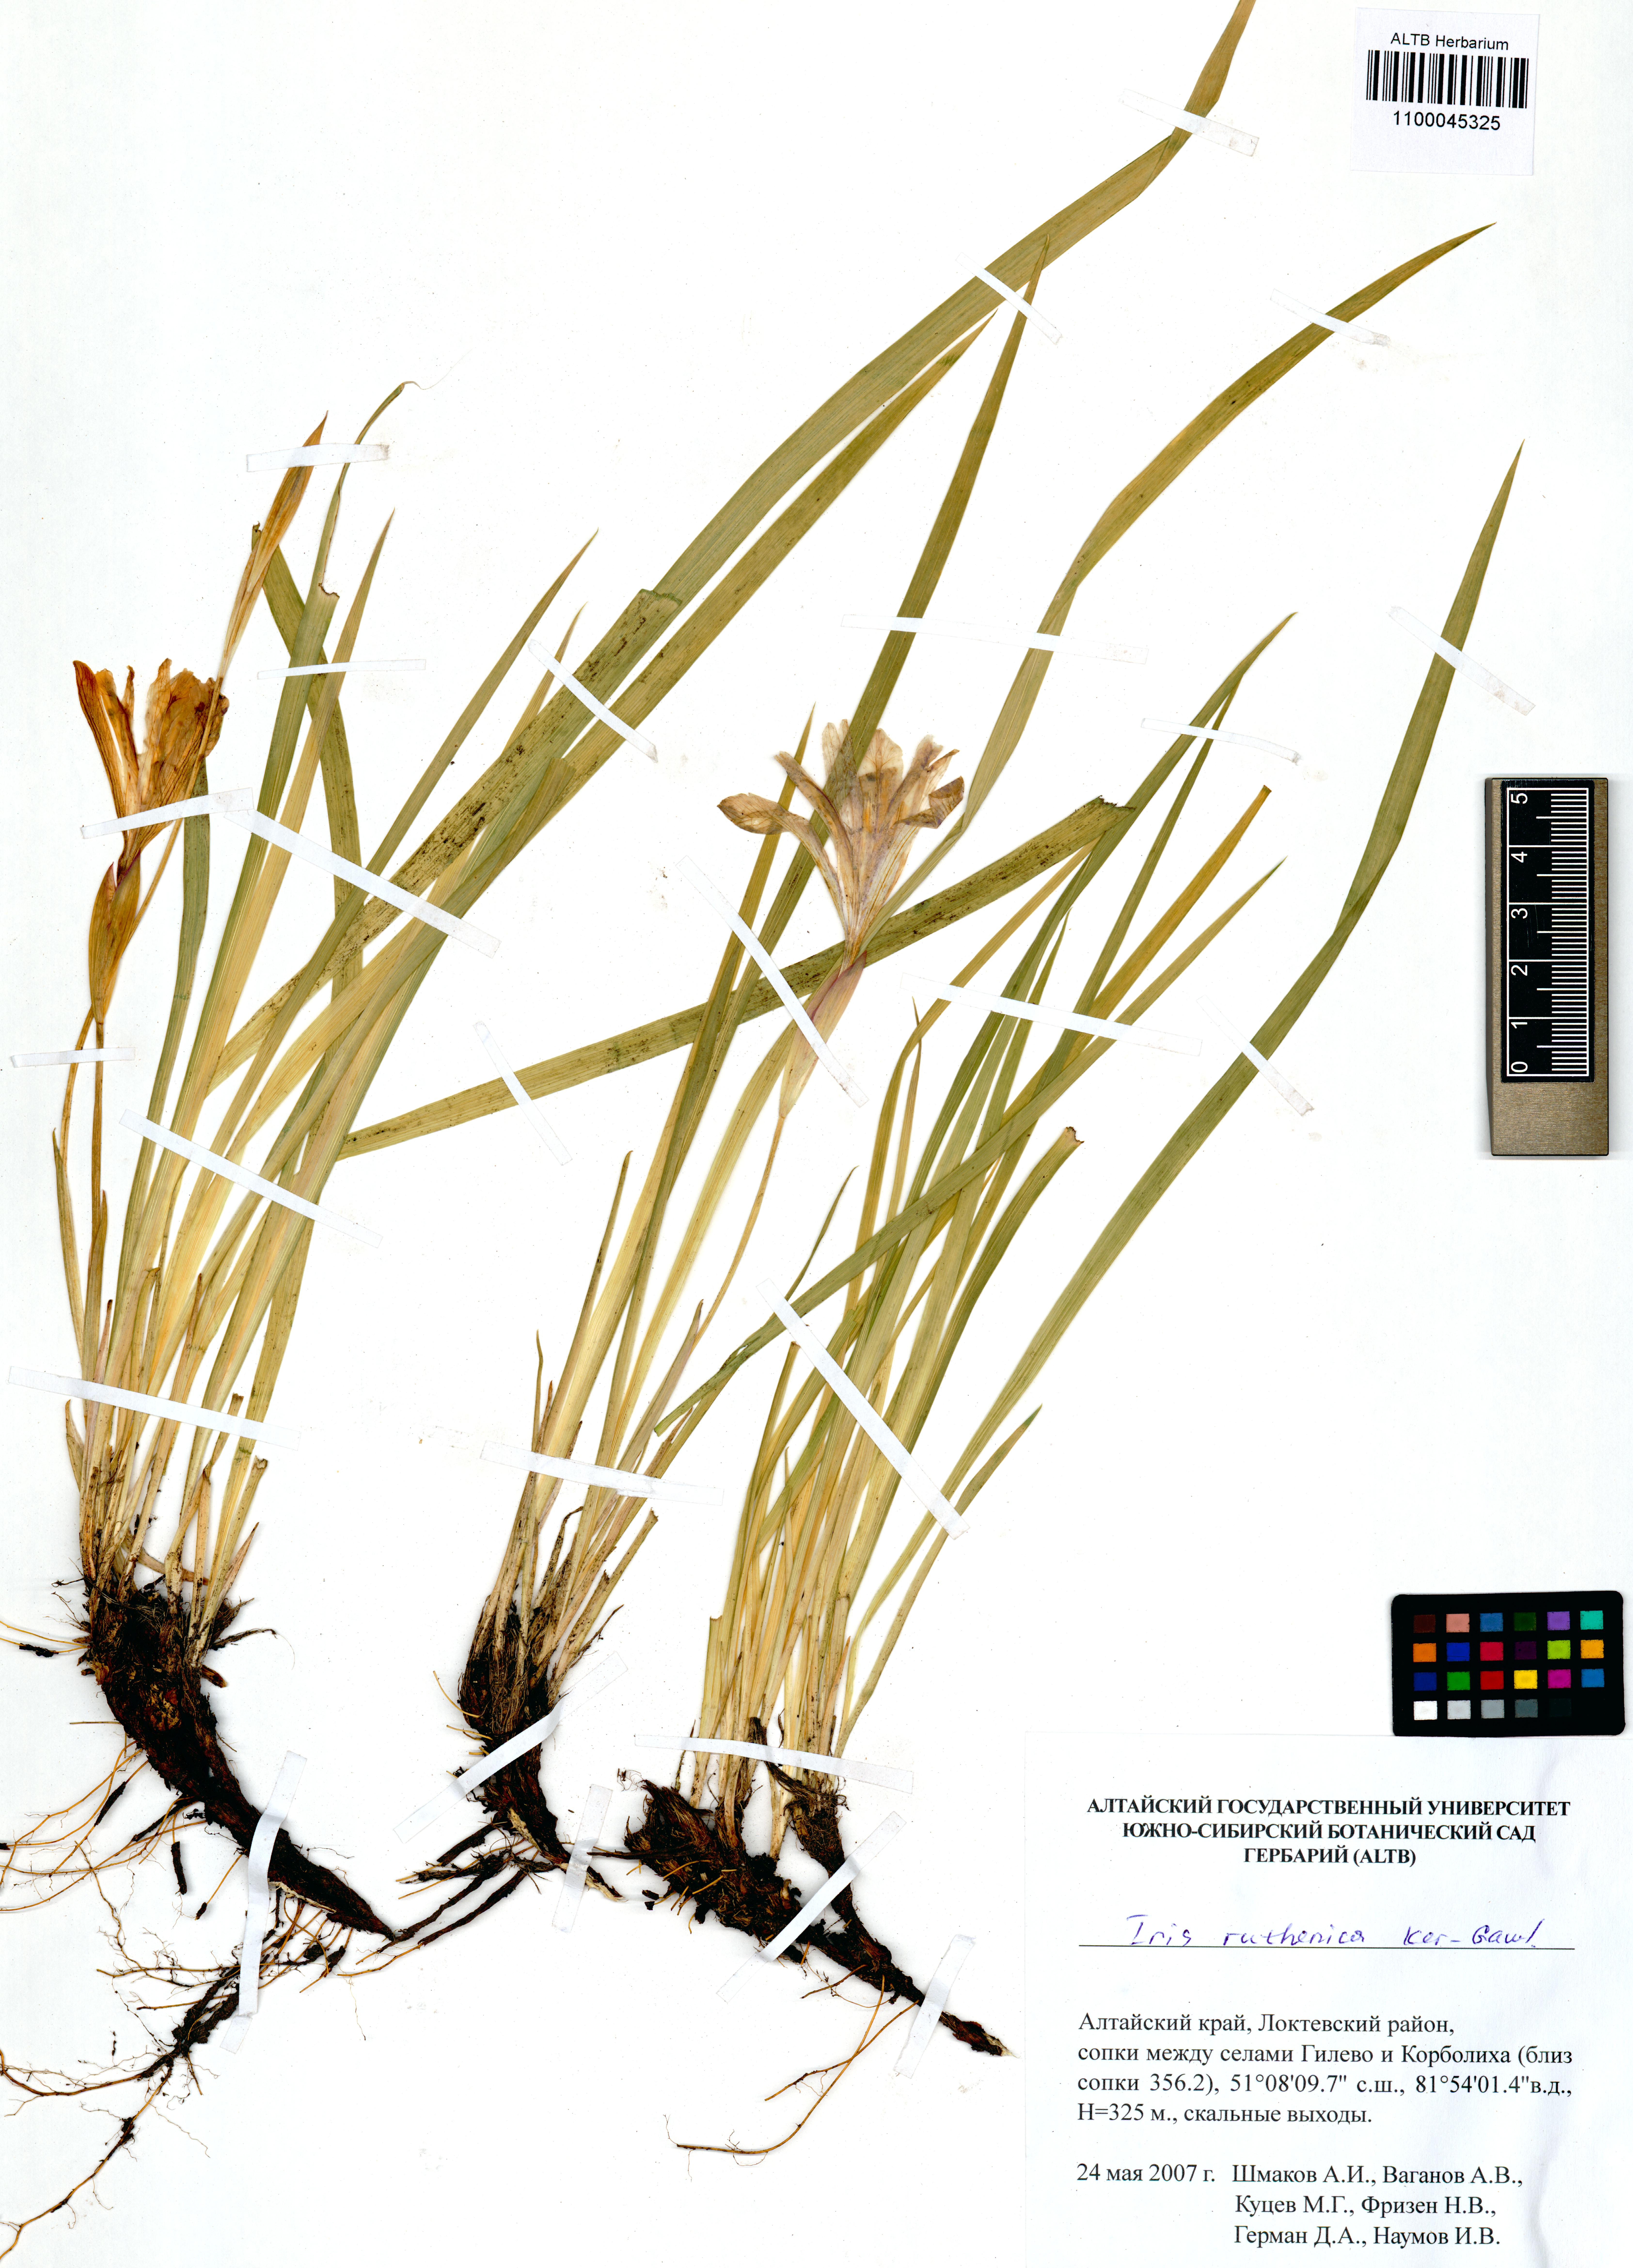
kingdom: Plantae
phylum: Tracheophyta
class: Liliopsida
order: Asparagales
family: Iridaceae
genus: Iris
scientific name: Iris ludwigii
